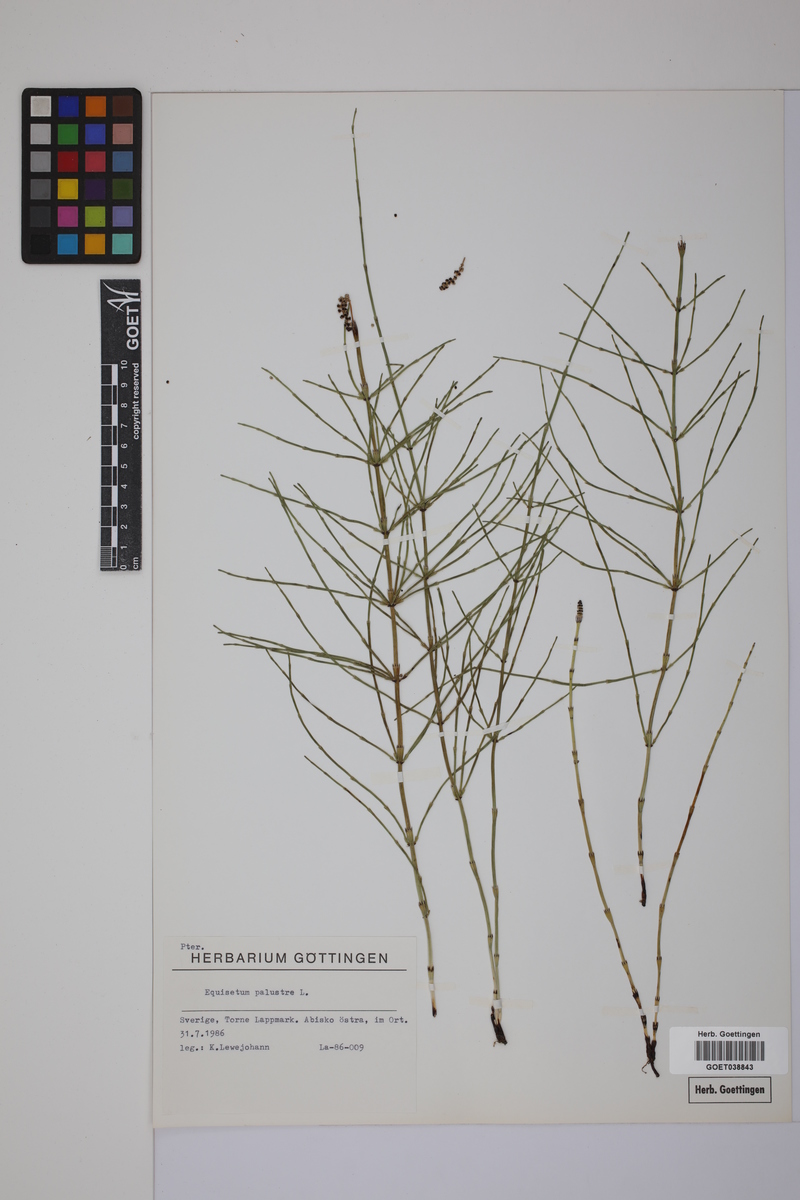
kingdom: Plantae
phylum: Tracheophyta
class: Polypodiopsida
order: Equisetales
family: Equisetaceae
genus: Equisetum
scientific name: Equisetum palustre
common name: Marsh horsetail
